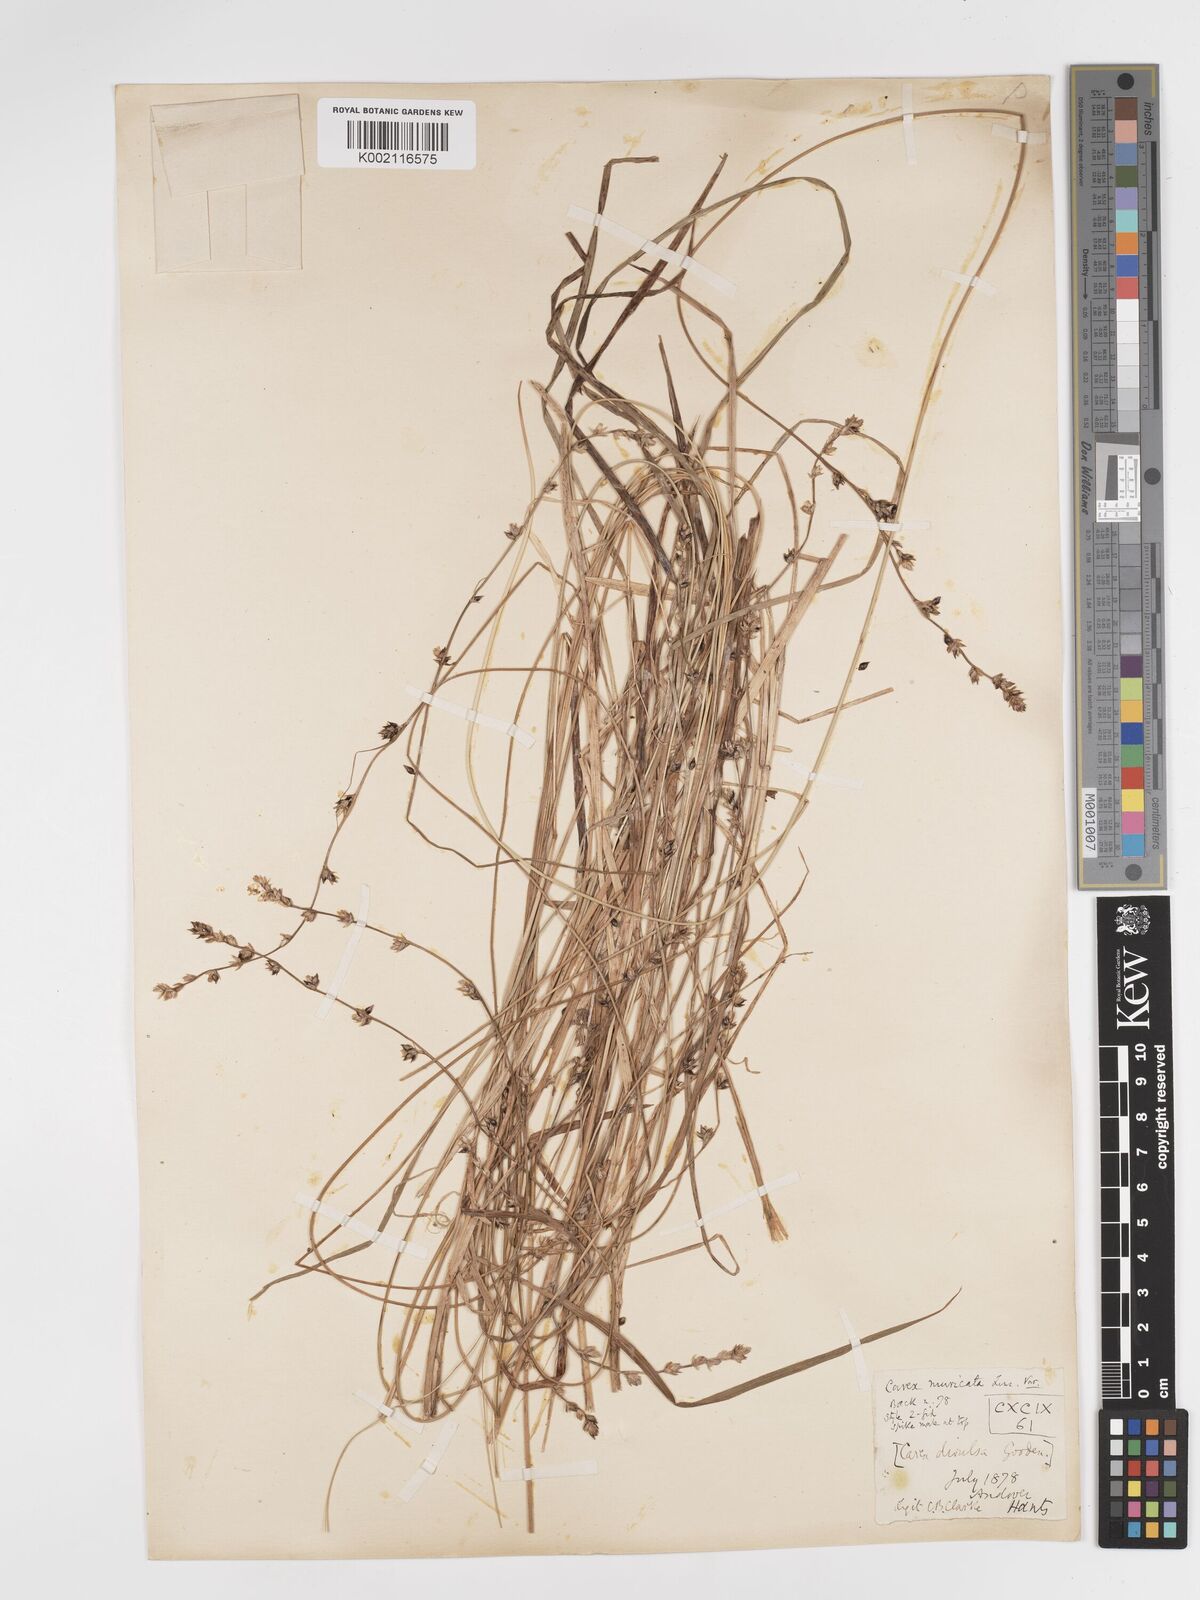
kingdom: Plantae
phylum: Tracheophyta
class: Liliopsida
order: Poales
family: Cyperaceae
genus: Carex
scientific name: Carex divulsa
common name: Grassland sedge
